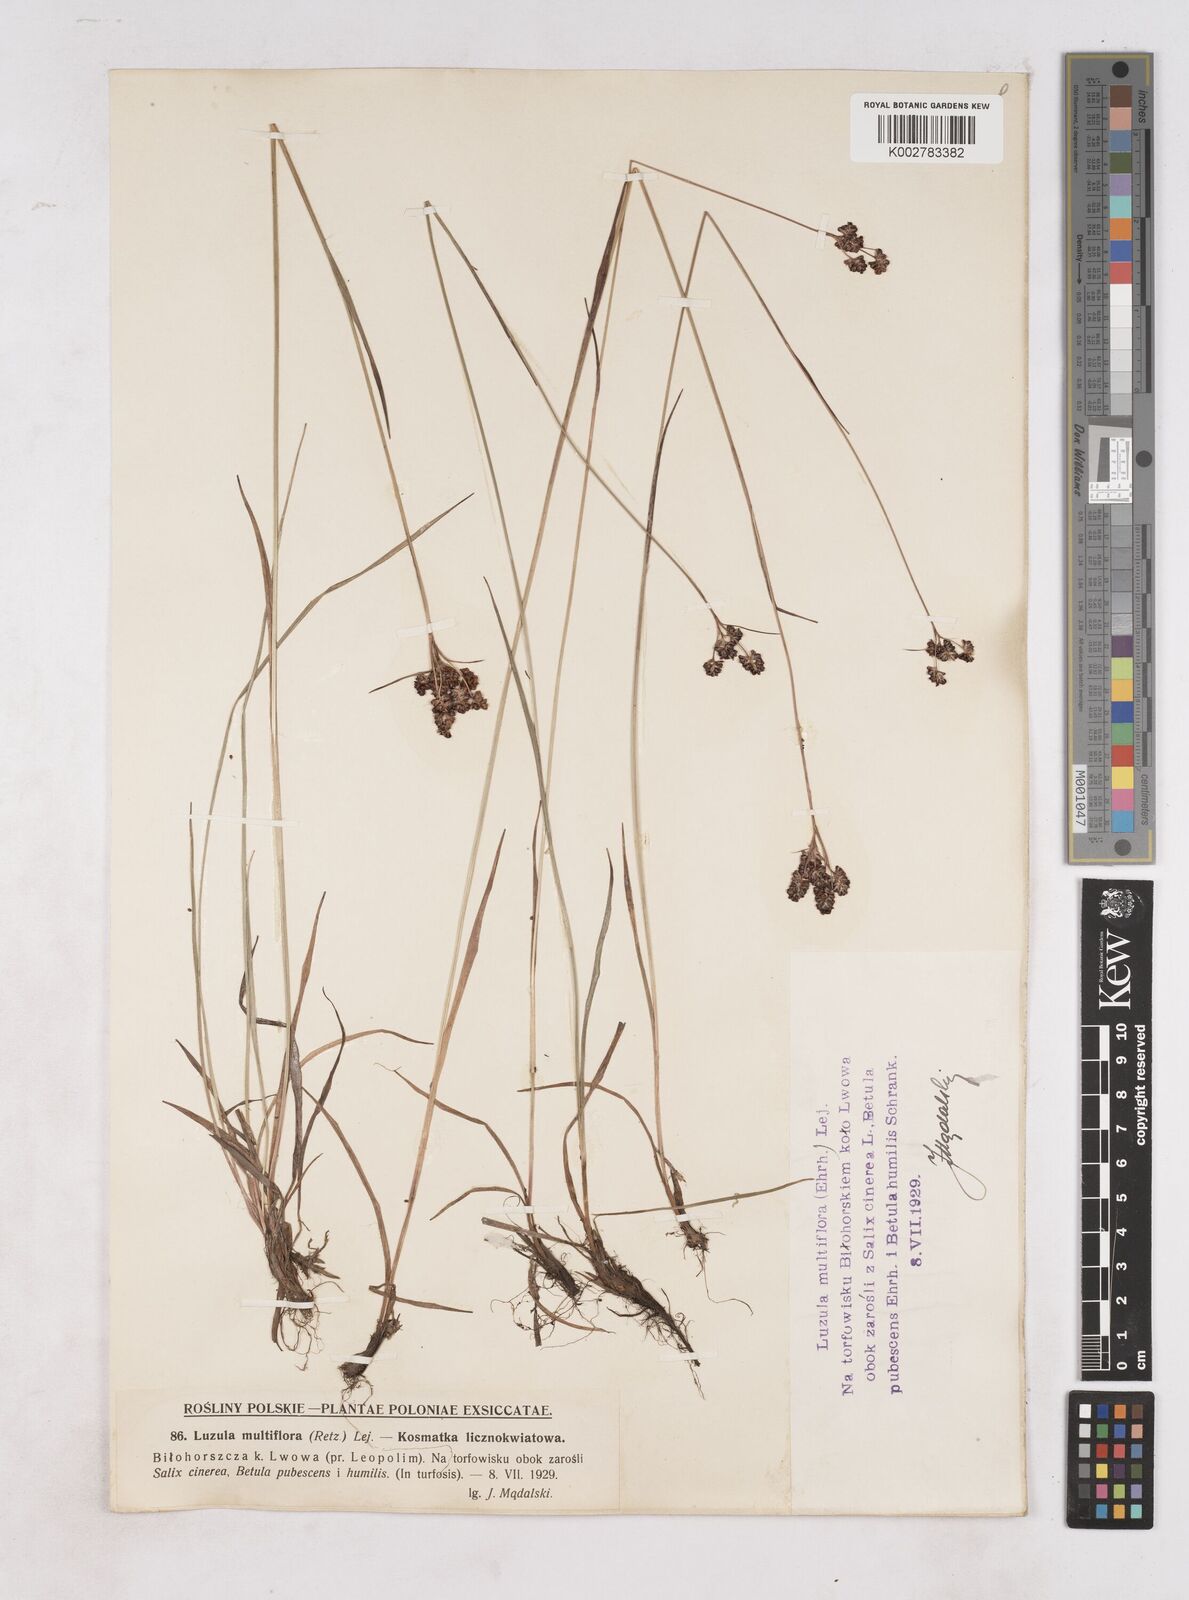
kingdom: Plantae
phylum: Tracheophyta
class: Liliopsida
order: Poales
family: Juncaceae
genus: Luzula
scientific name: Luzula multiflora
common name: Heath wood-rush
